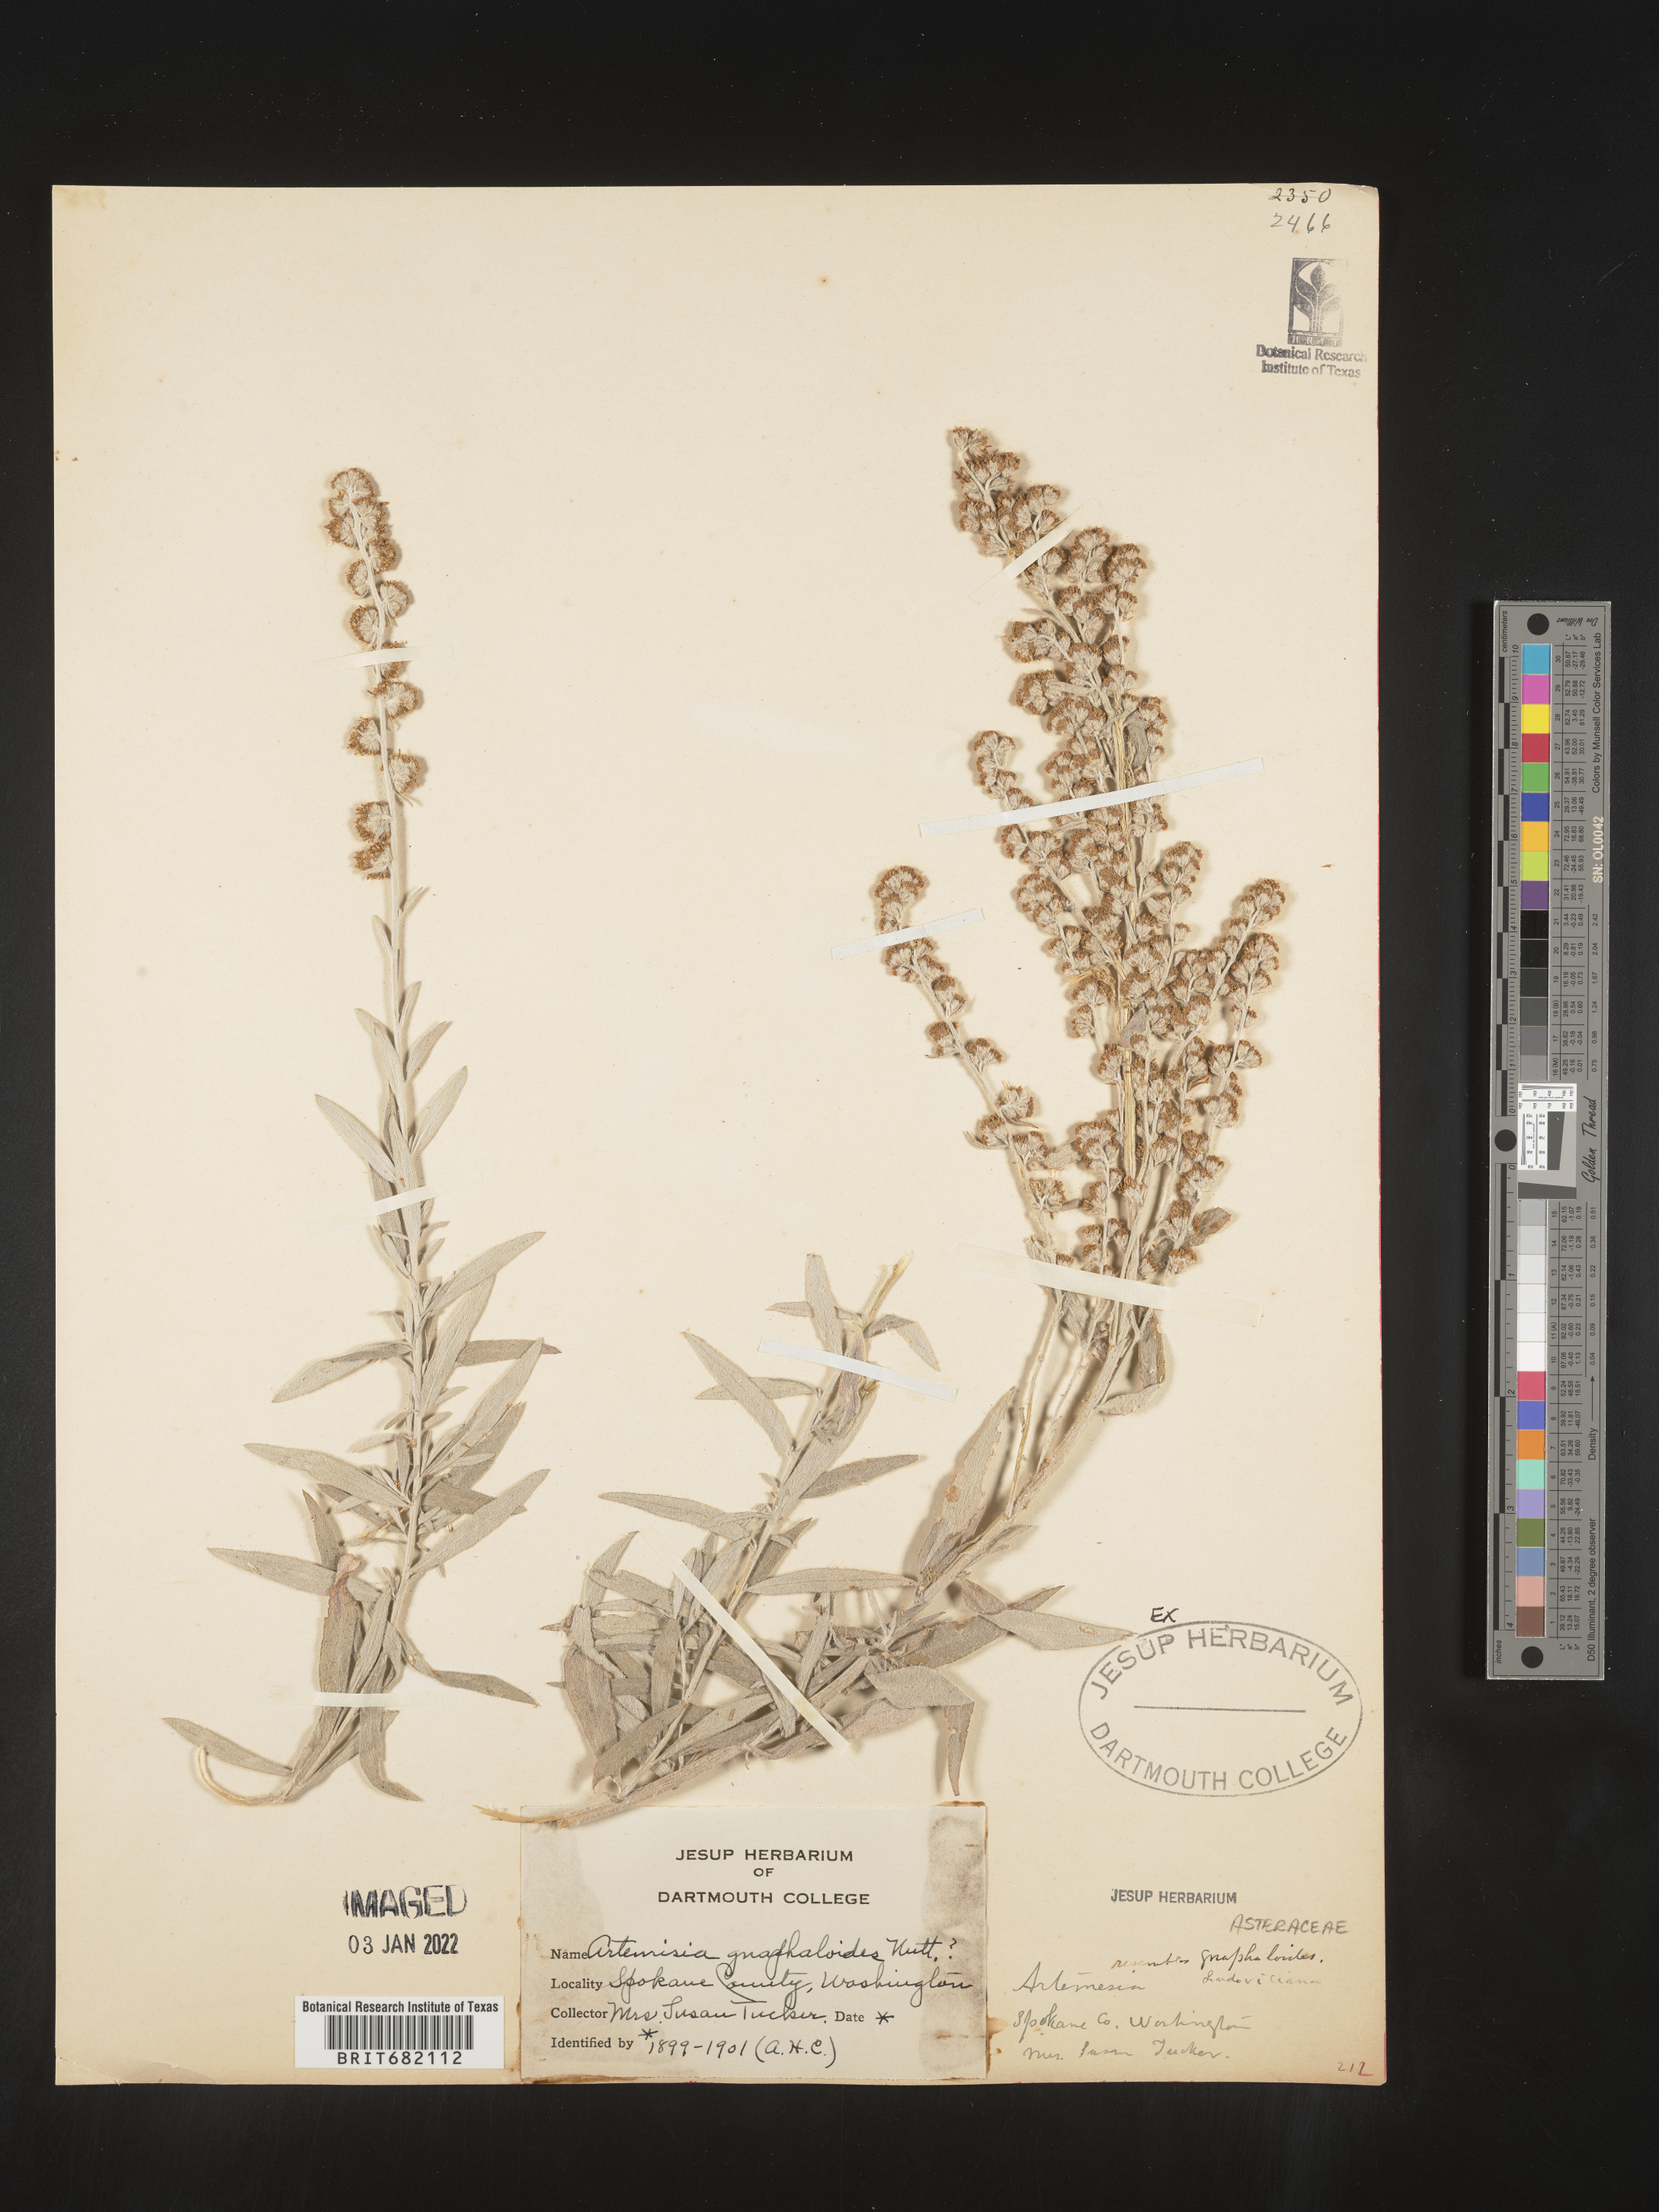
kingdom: Plantae
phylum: Tracheophyta
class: Magnoliopsida
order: Asterales
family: Asteraceae
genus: Artemisia
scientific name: Artemisia ludoviciana
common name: Western mugwort
